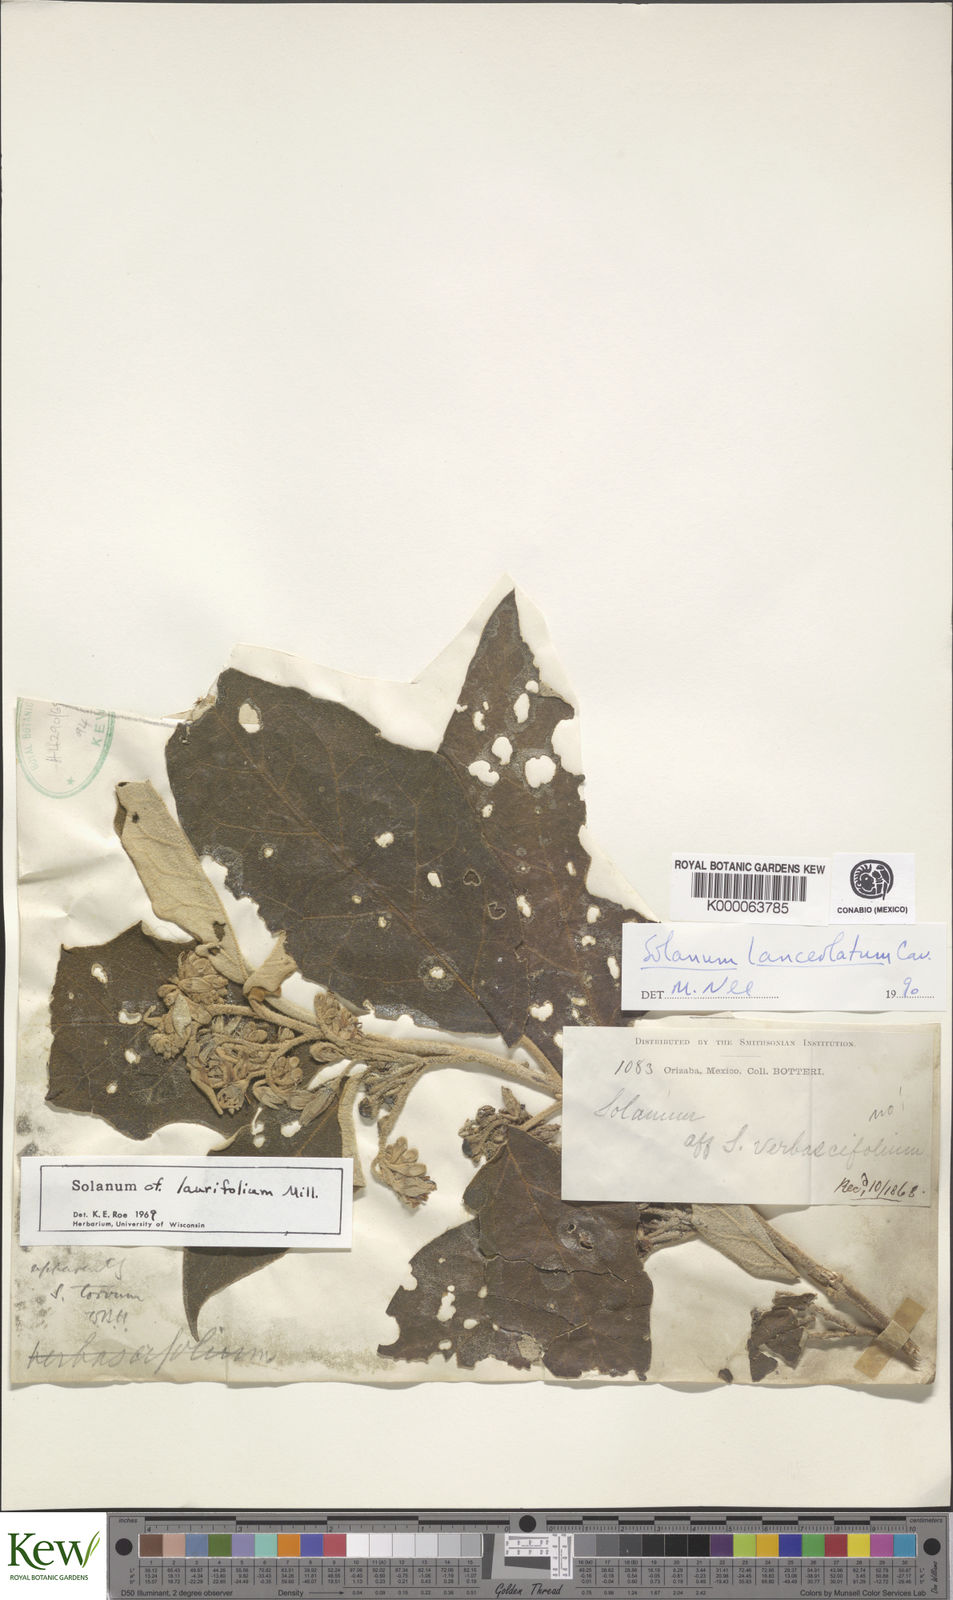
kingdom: Plantae
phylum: Tracheophyta
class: Magnoliopsida
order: Solanales
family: Solanaceae
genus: Solanum
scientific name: Solanum lanceolatum
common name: Orangeberry nightshade
